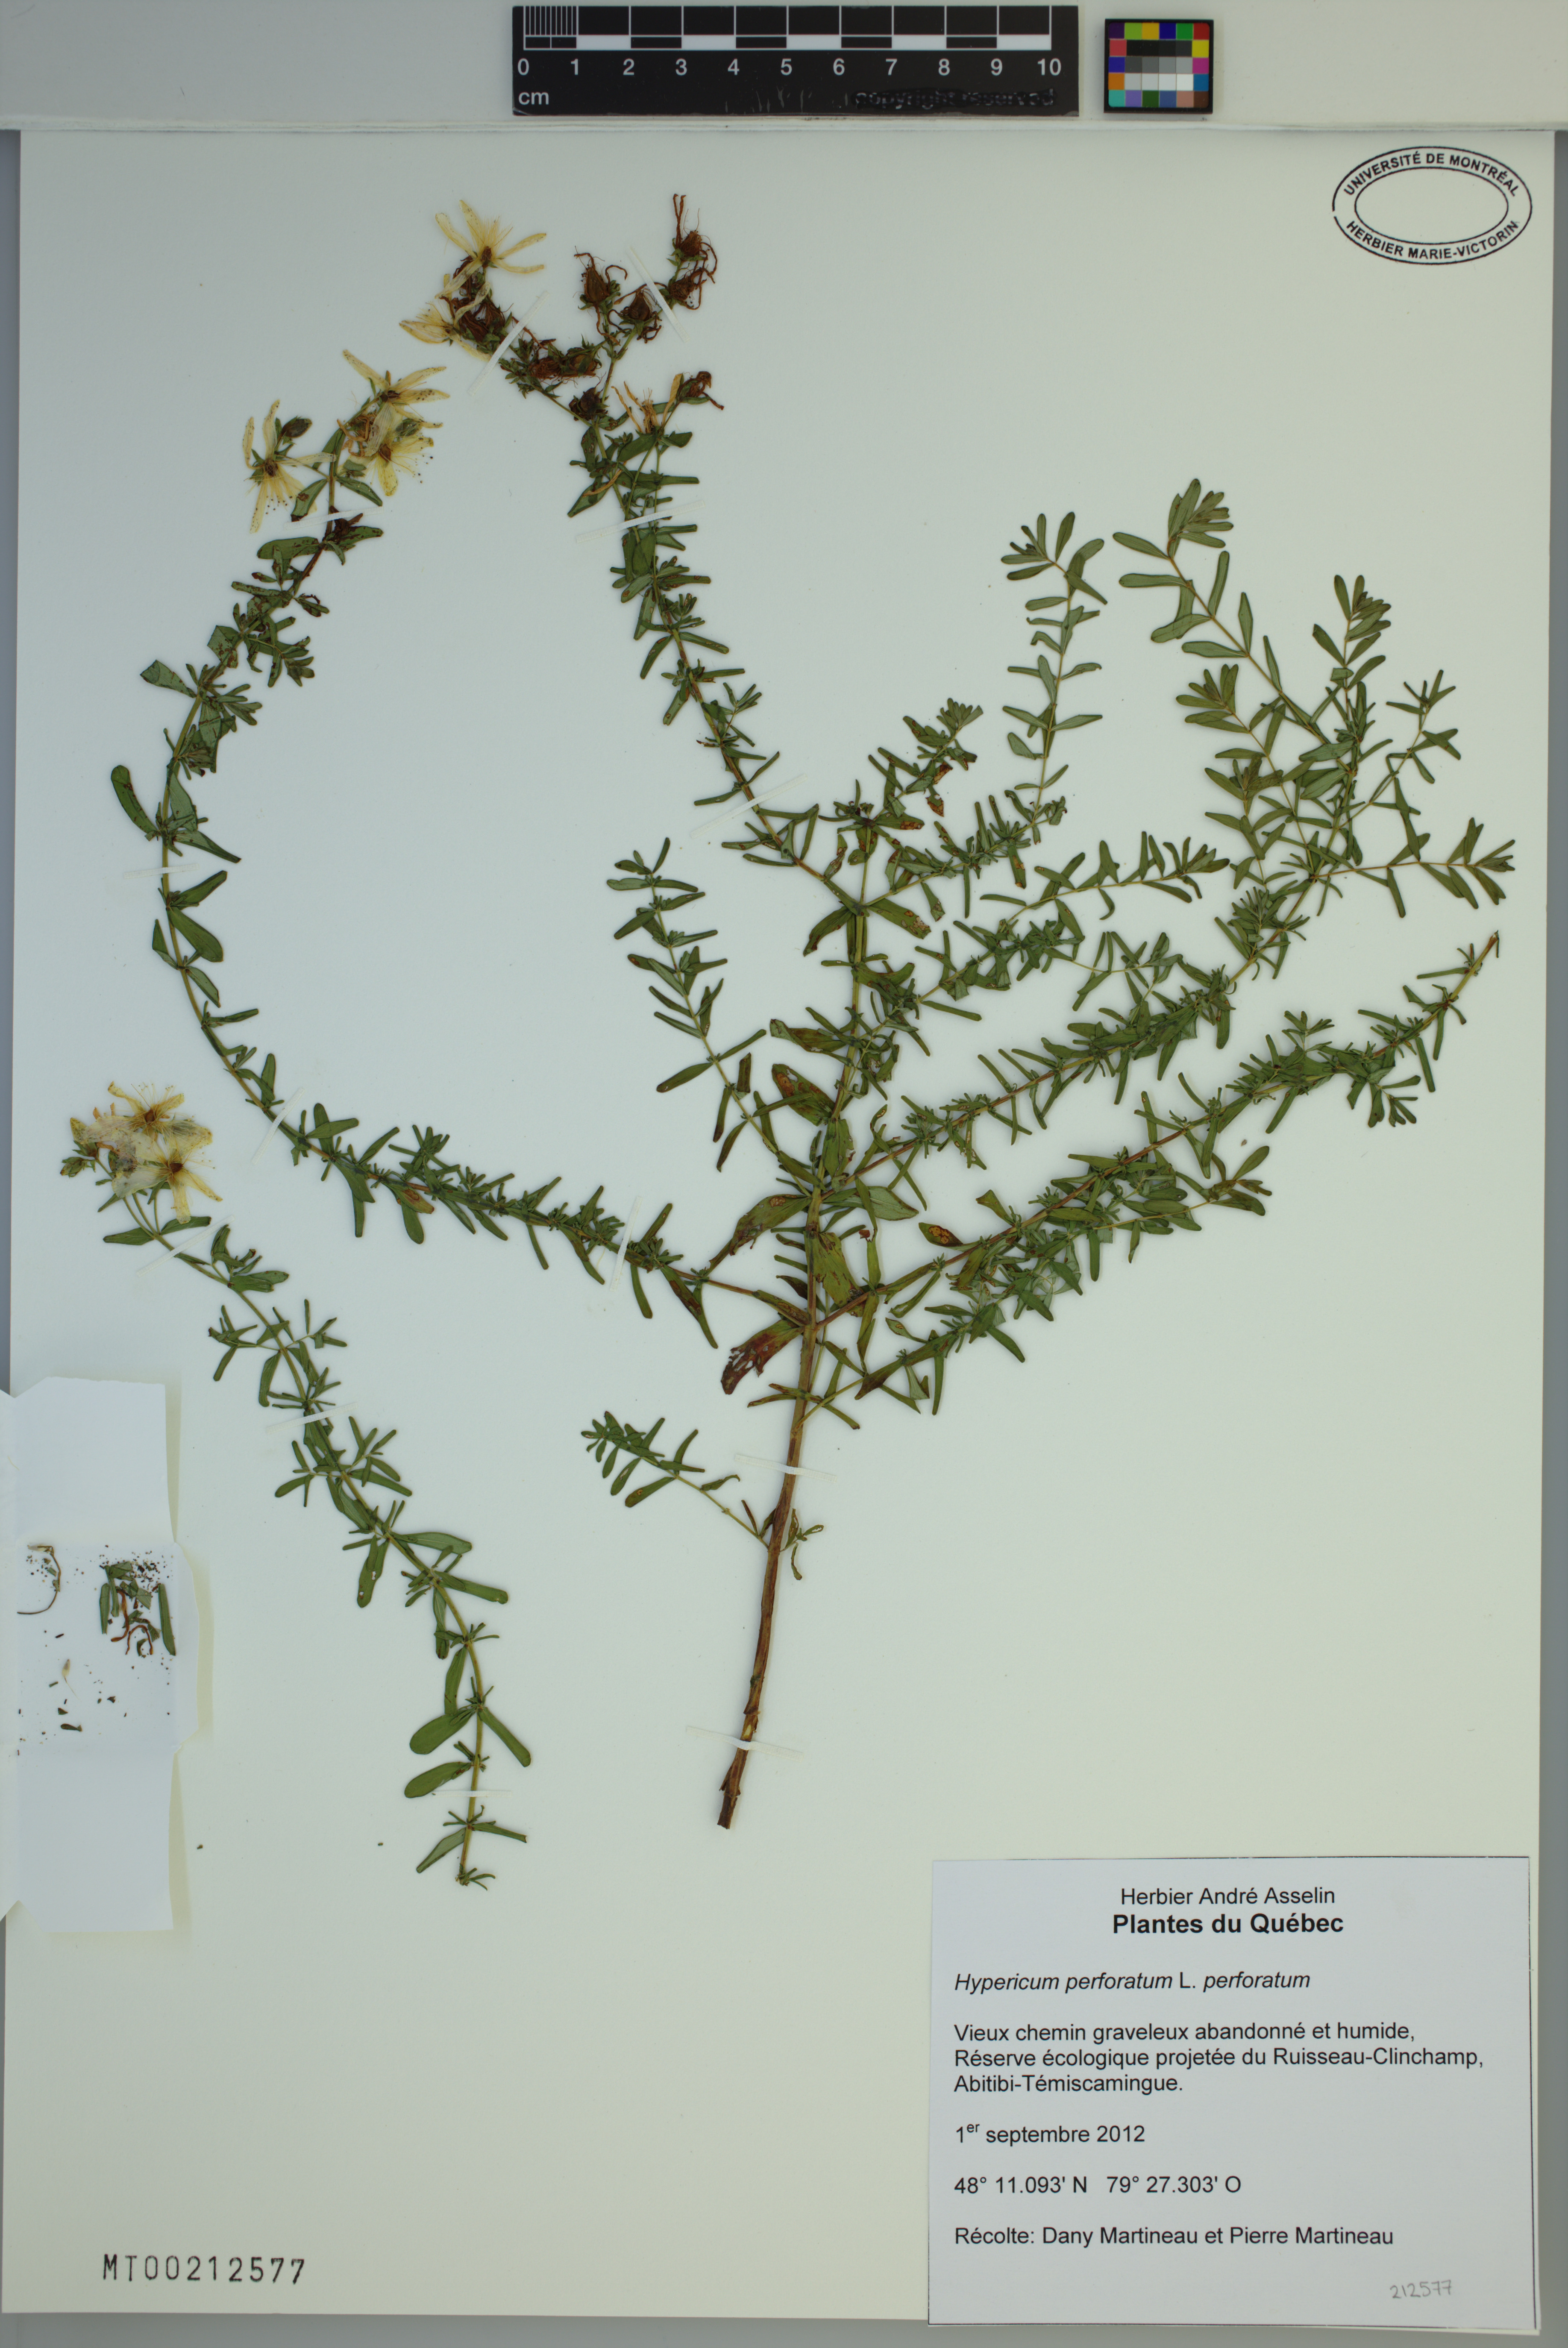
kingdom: Plantae
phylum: Tracheophyta
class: Magnoliopsida
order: Malpighiales
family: Hypericaceae
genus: Hypericum
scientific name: Hypericum perforatum
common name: Common st. johnswort
